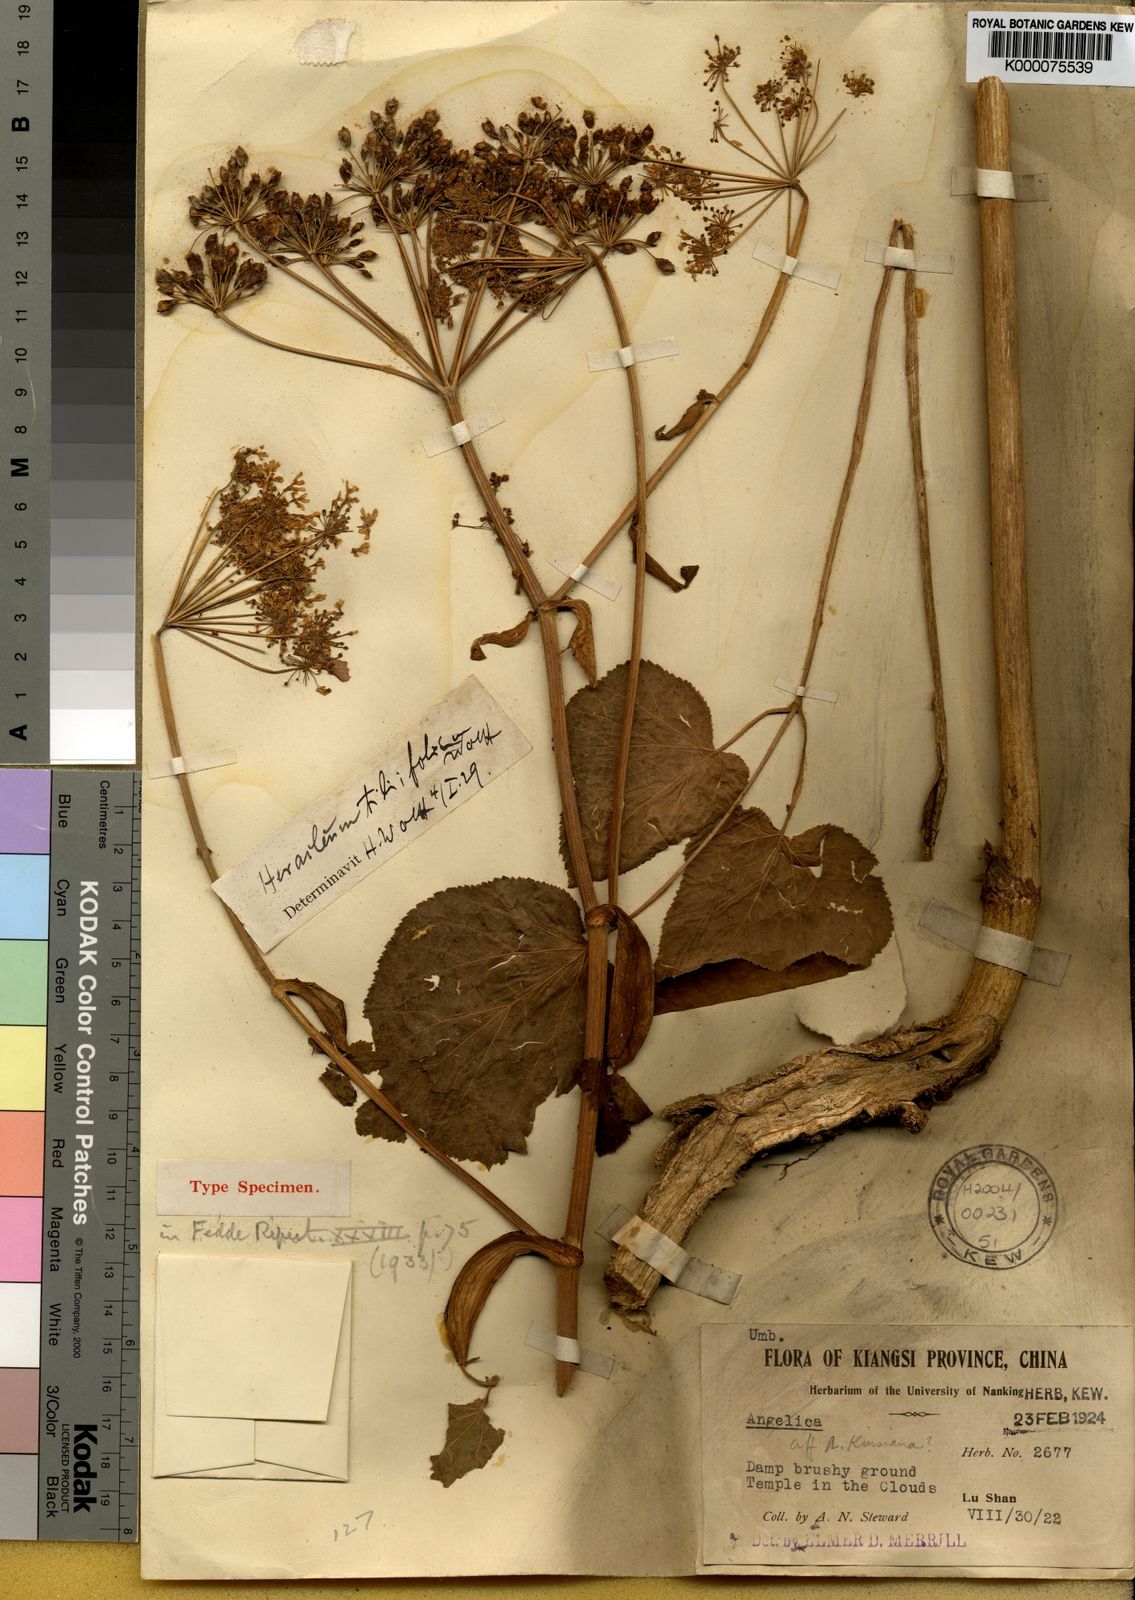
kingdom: Plantae
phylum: Tracheophyta
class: Magnoliopsida
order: Apiales
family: Apiaceae
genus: Heracleum
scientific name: Heracleum tiliifolium
